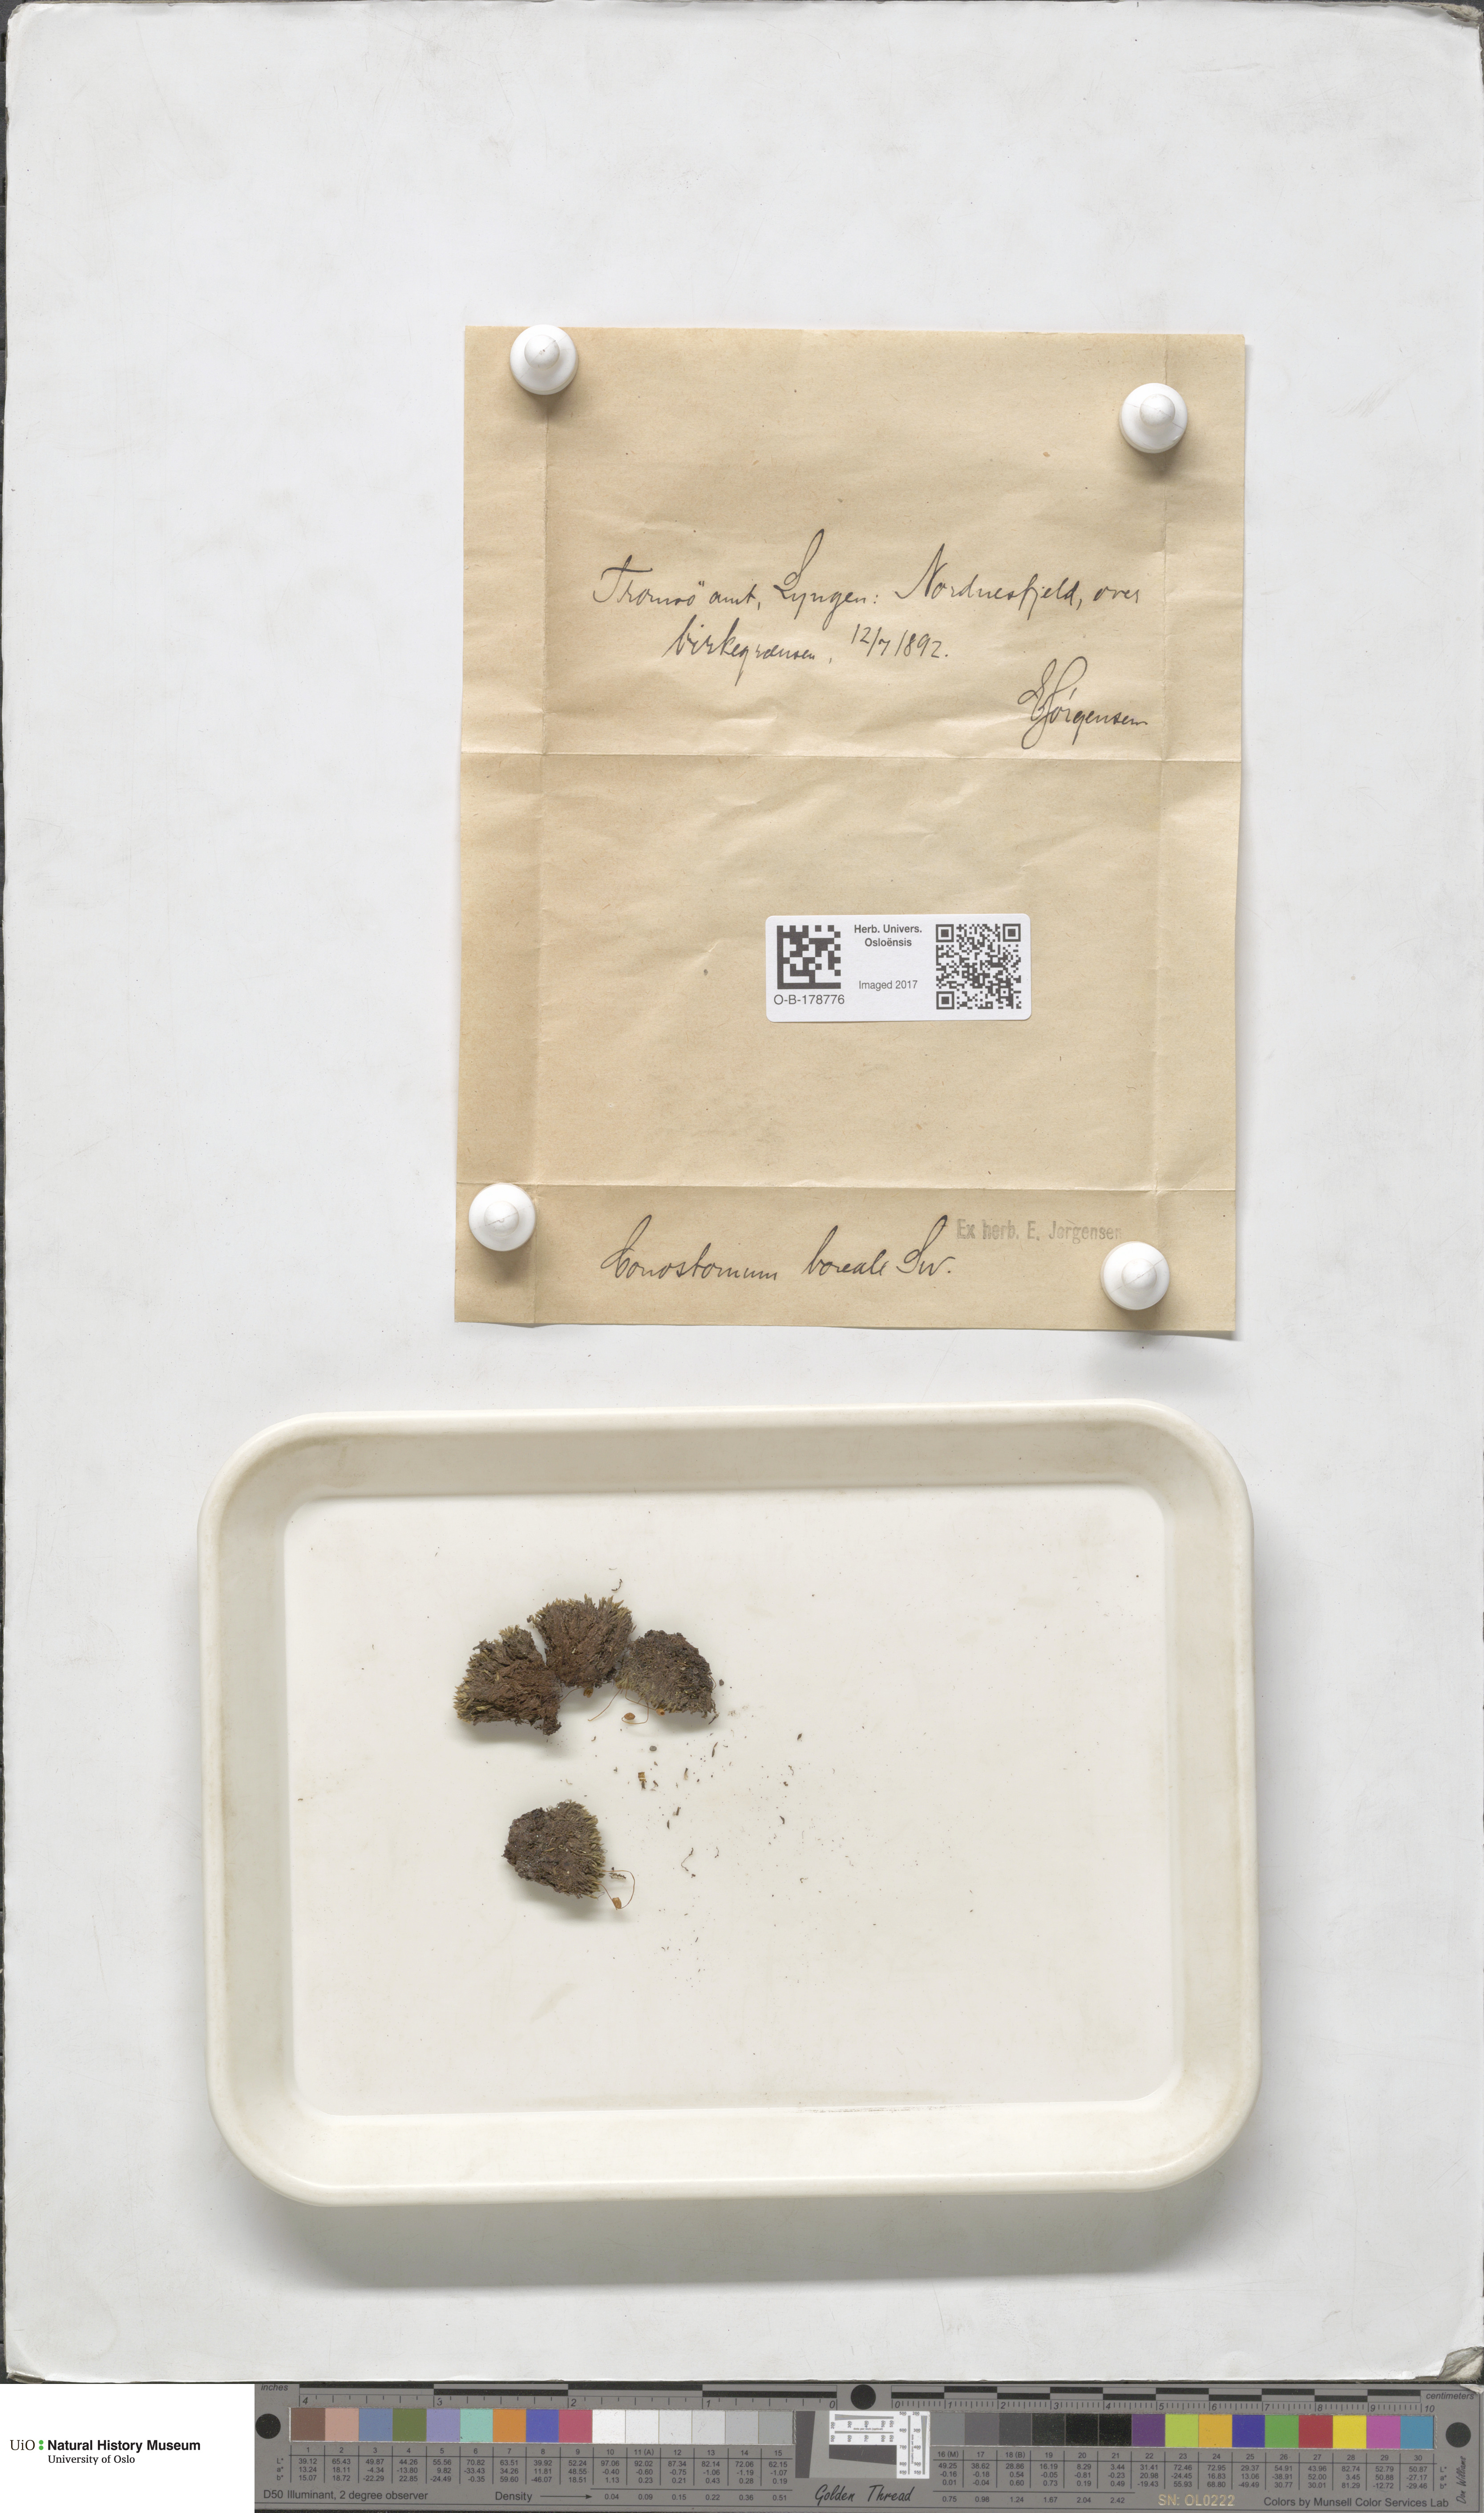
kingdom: Plantae
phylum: Bryophyta
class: Bryopsida
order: Bartramiales
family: Bartramiaceae
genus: Conostomum
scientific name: Conostomum tetragonum
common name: Helmet moss
